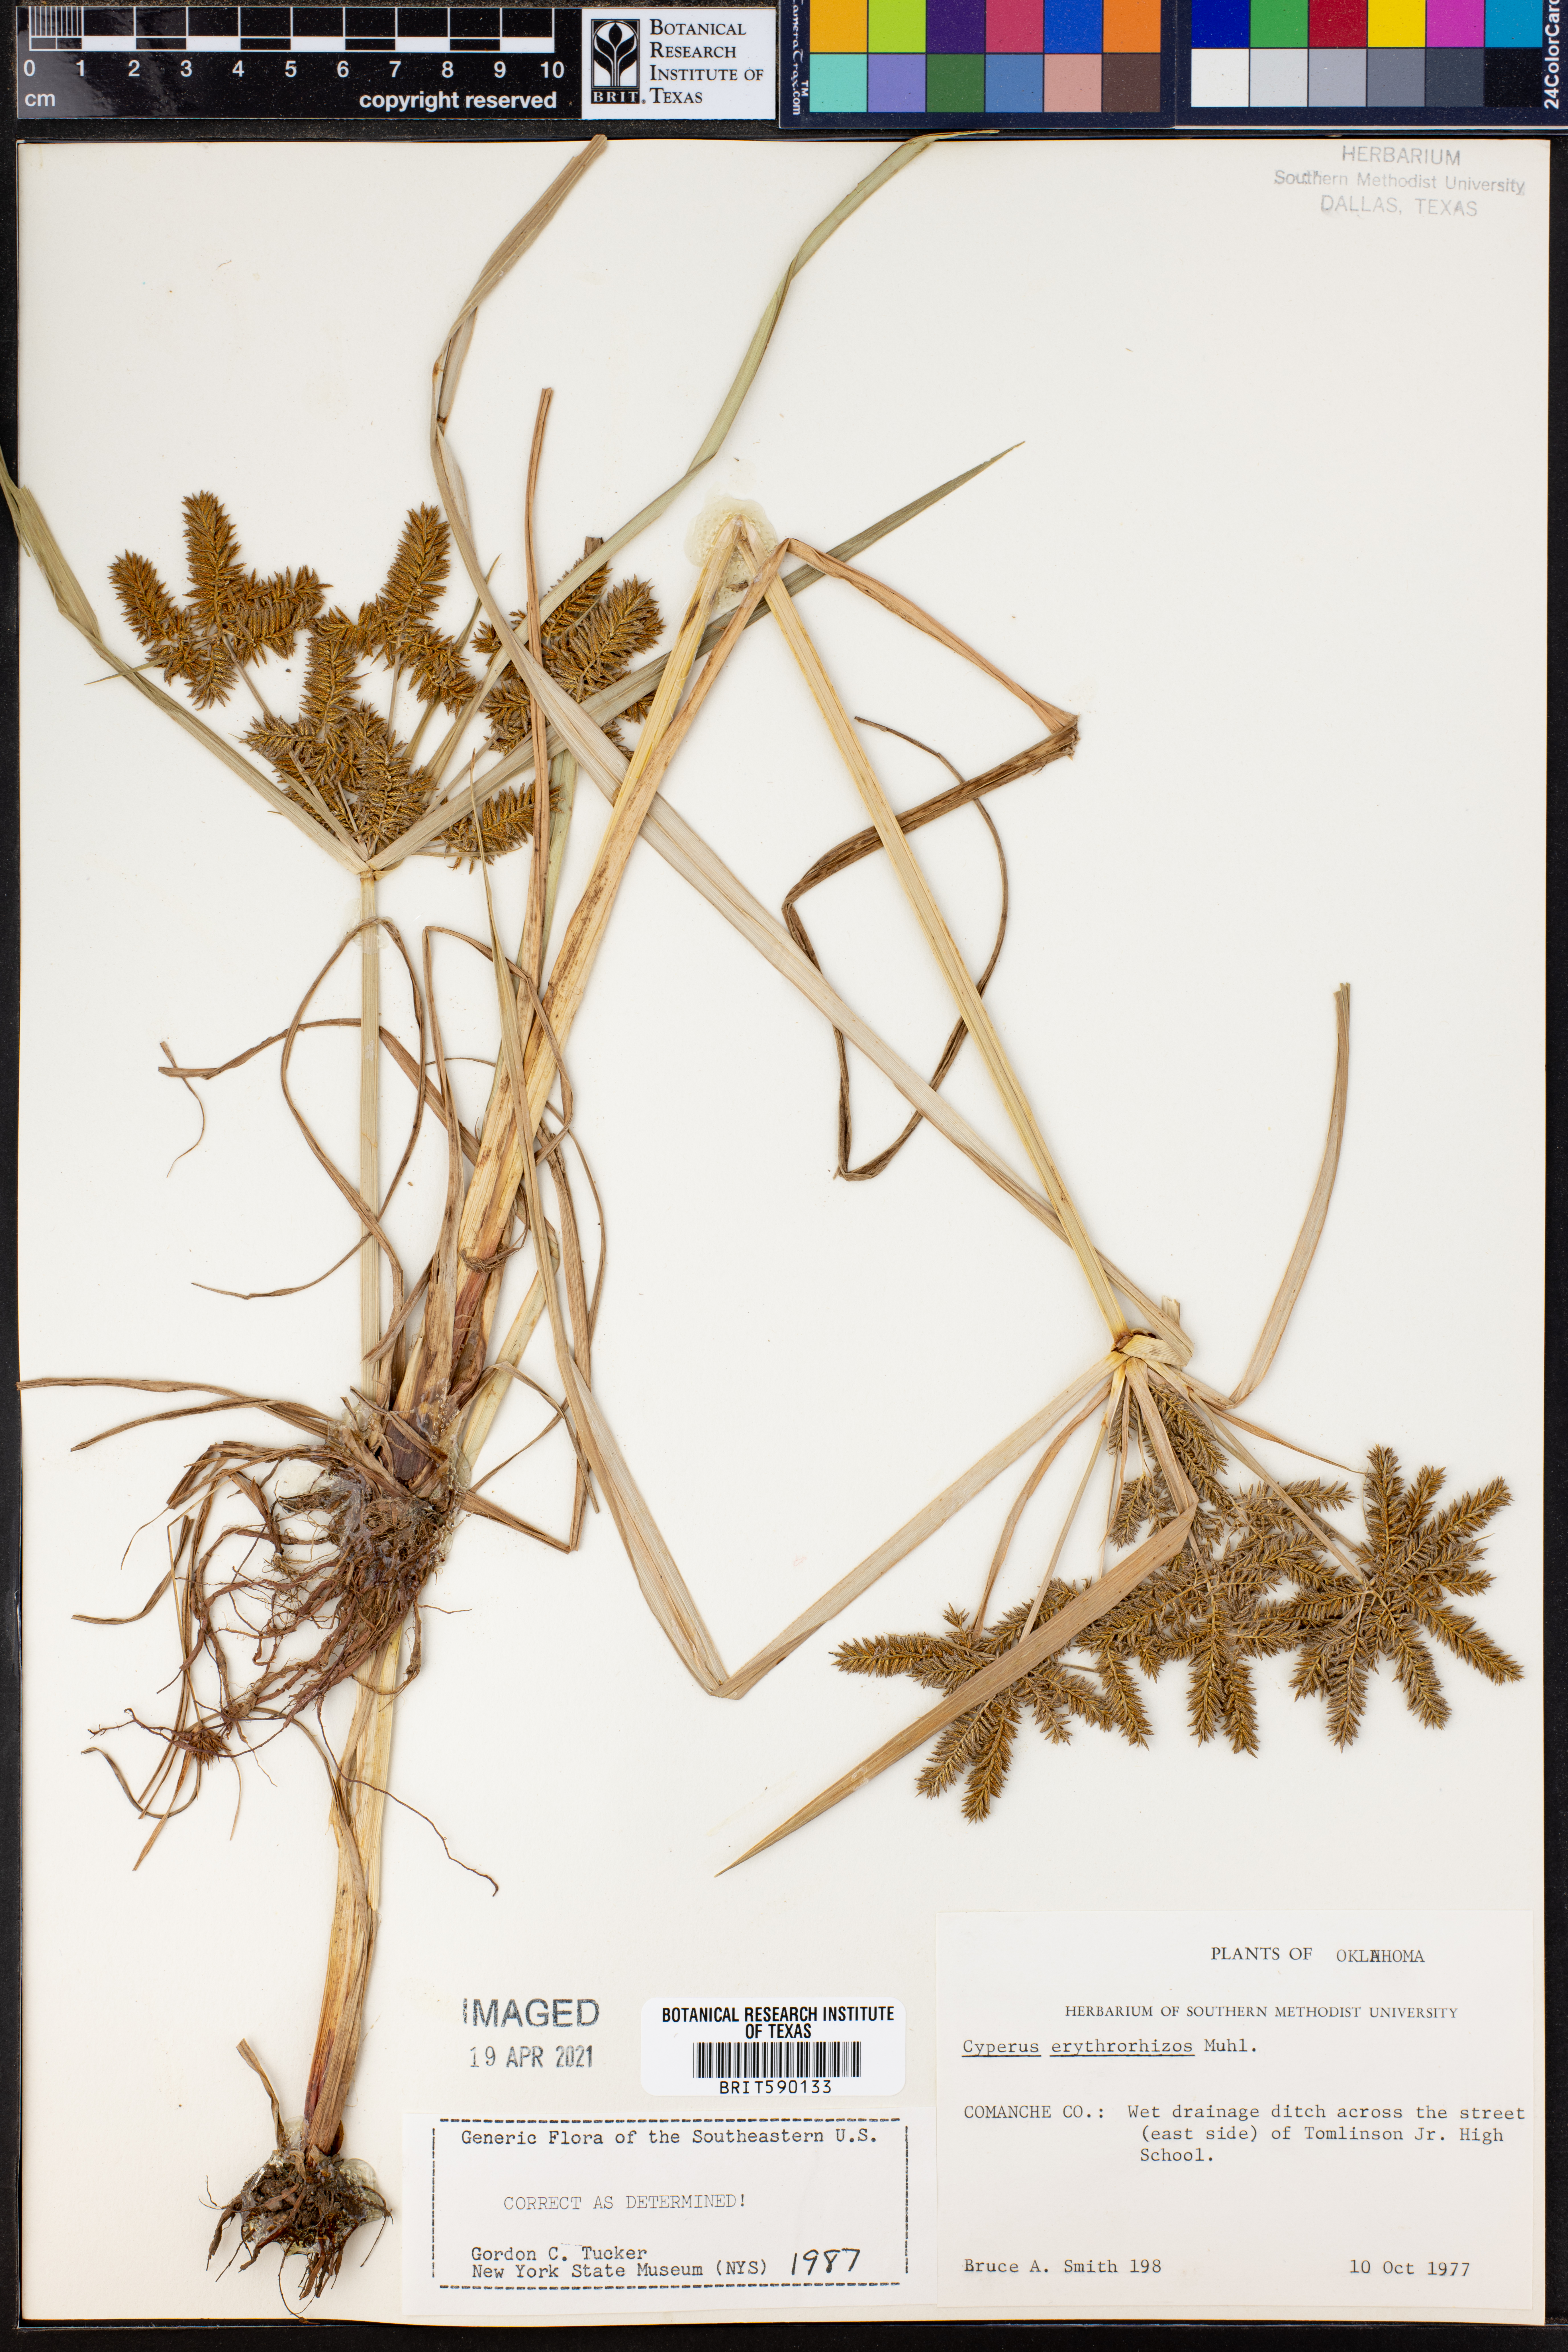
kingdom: Plantae
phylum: Tracheophyta
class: Liliopsida
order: Poales
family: Cyperaceae
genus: Cyperus
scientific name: Cyperus erythrorhizos
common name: Red-root flat sedge
